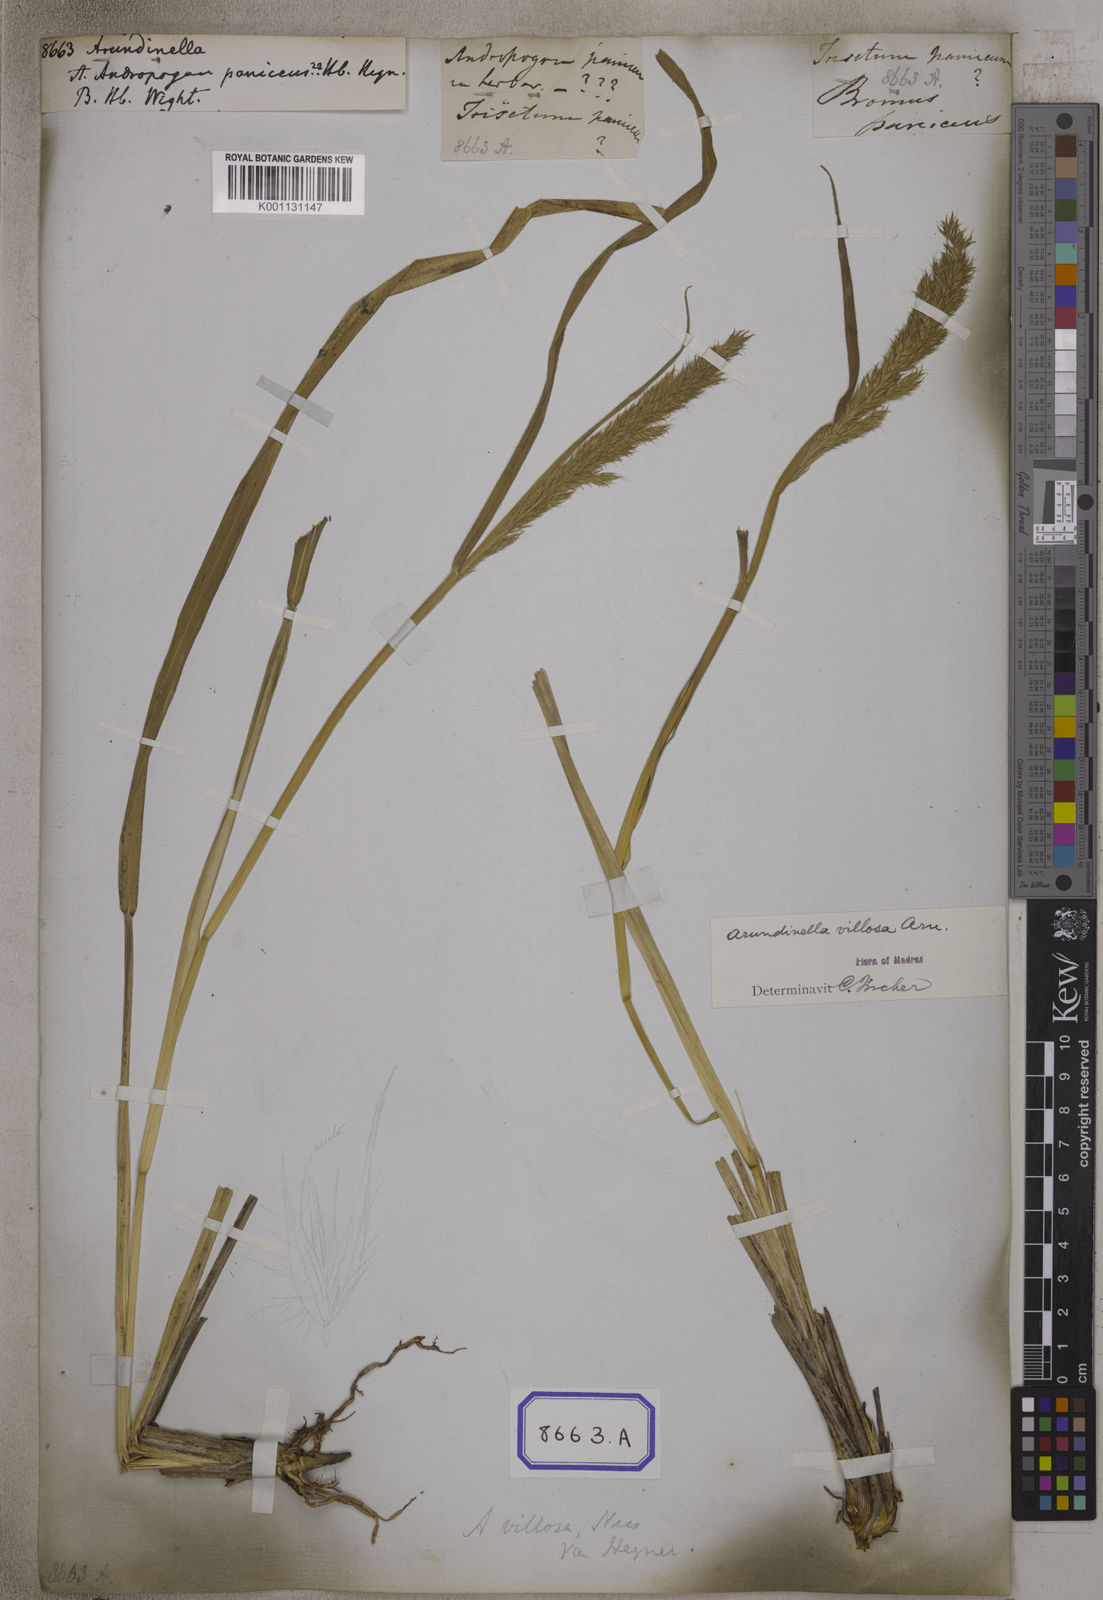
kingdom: Plantae
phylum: Tracheophyta
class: Liliopsida
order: Poales
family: Poaceae
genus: Arundinella
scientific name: Arundinella
